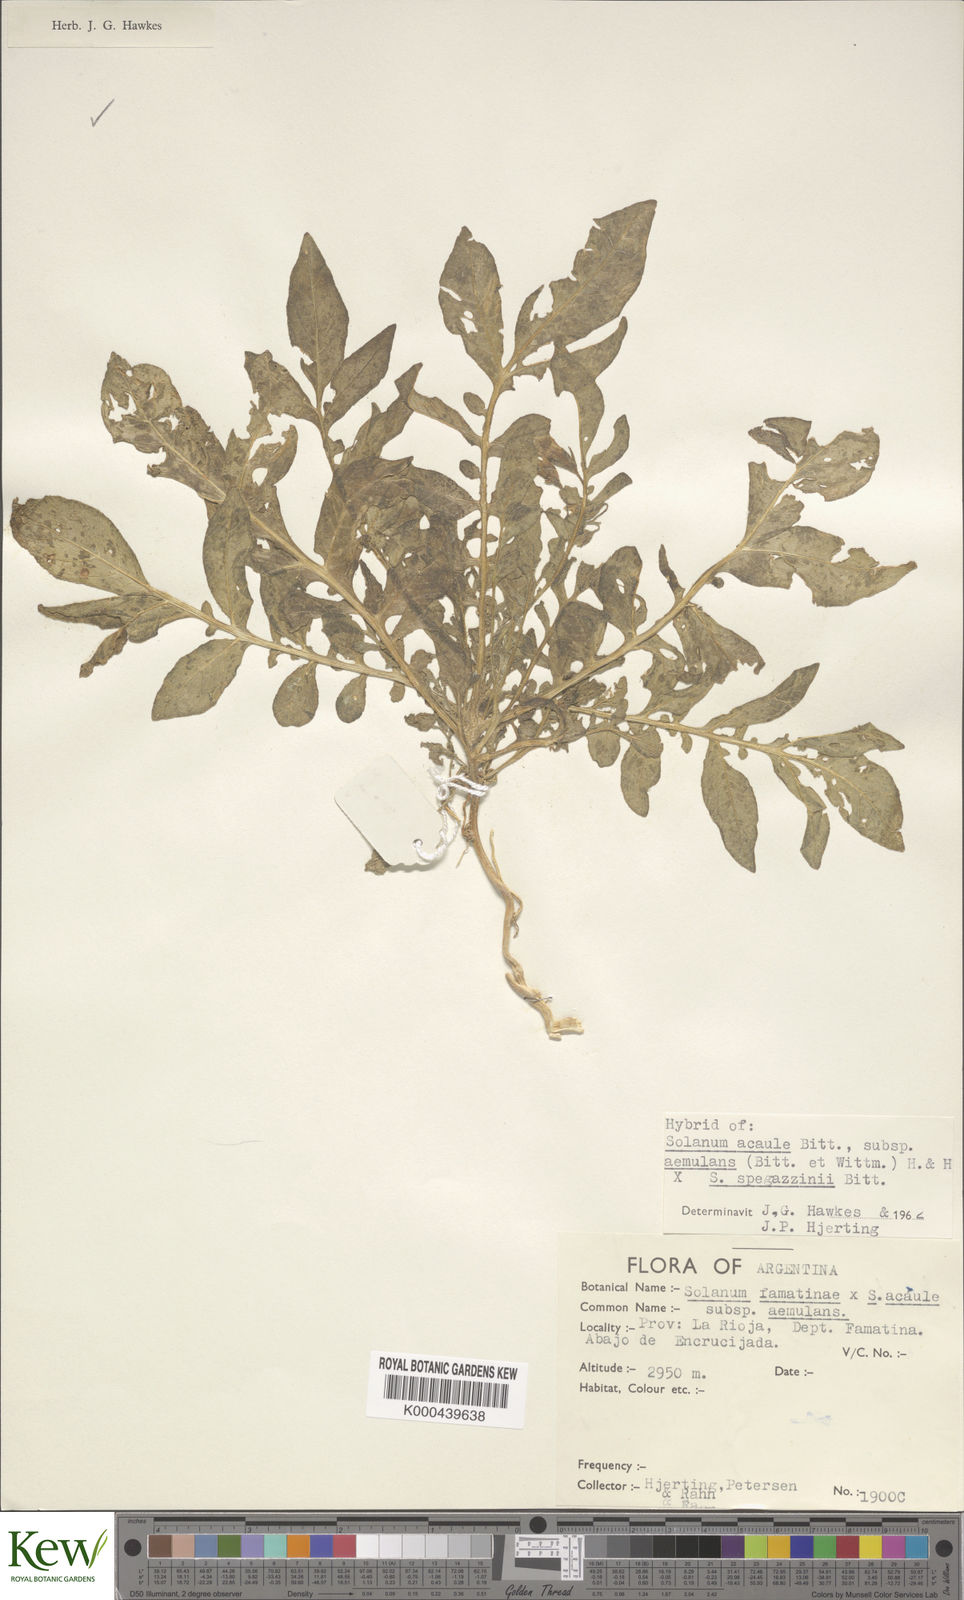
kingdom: Plantae
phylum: Tracheophyta
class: Magnoliopsida
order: Solanales
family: Solanaceae
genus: Solanum
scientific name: Solanum aemulans
